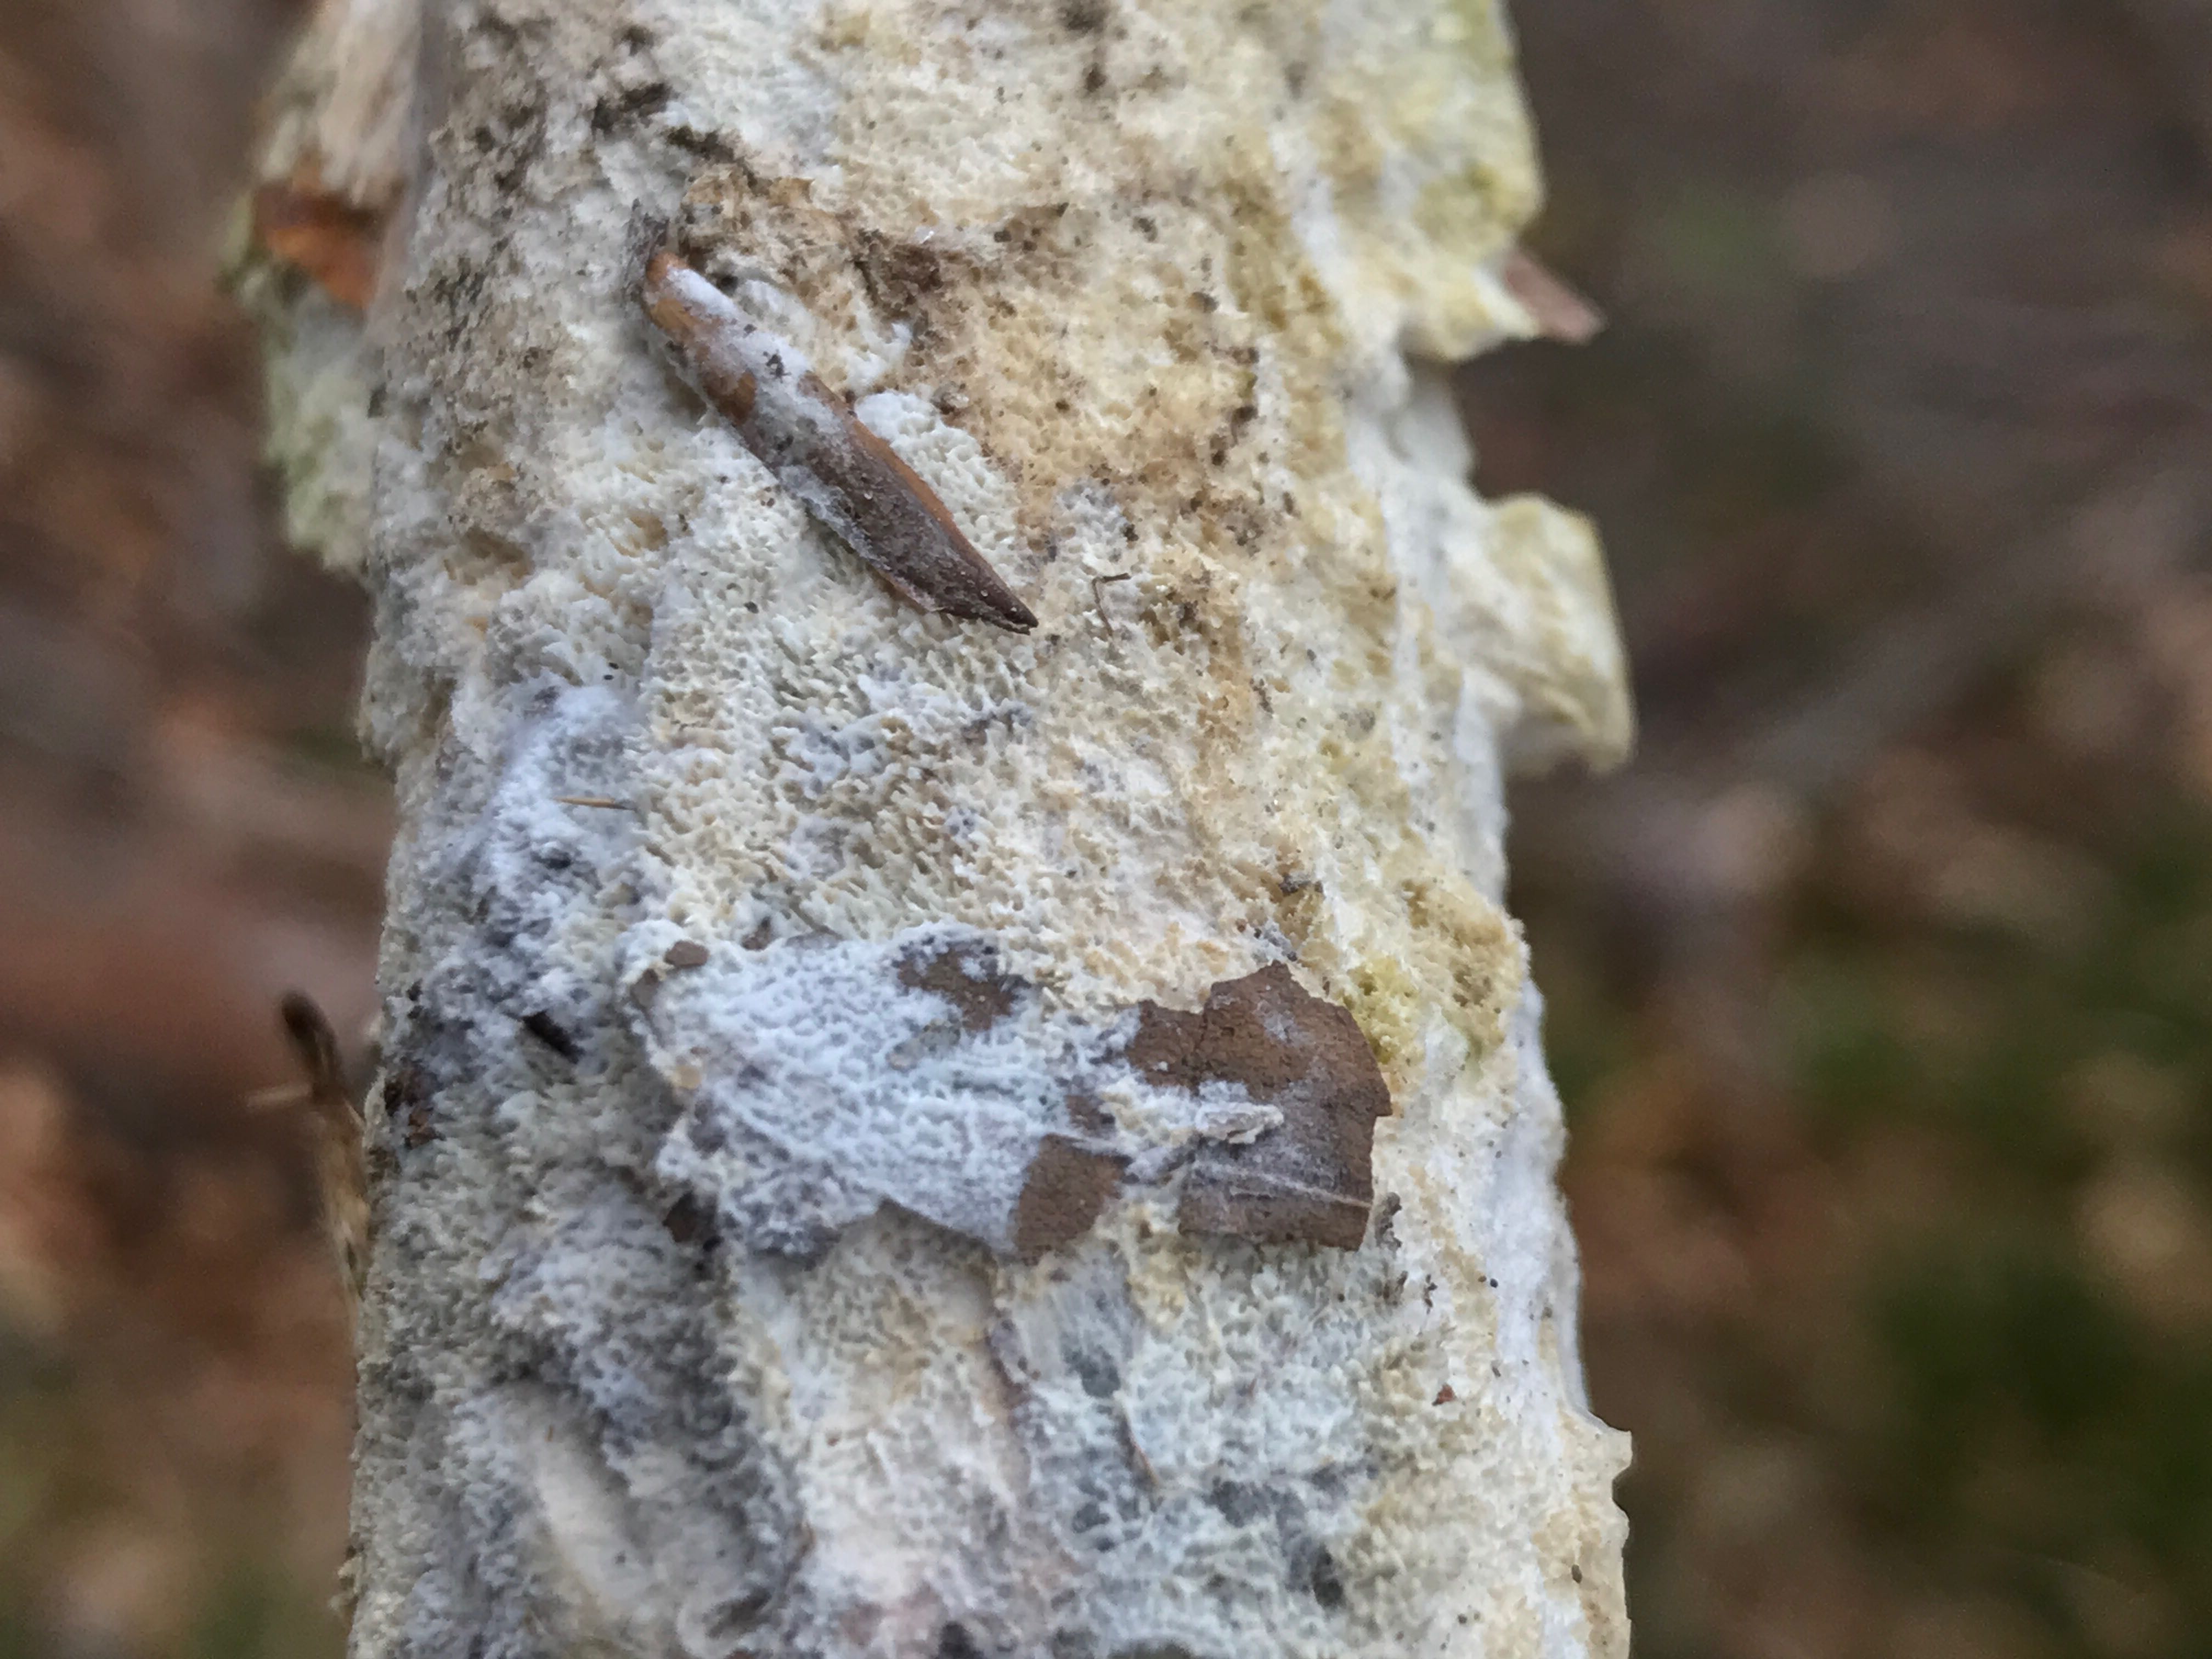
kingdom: Fungi
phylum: Basidiomycota
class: Agaricomycetes
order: Hymenochaetales
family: Schizoporaceae
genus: Schizopora
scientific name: Schizopora paradoxa
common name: hvid tandsvamp
